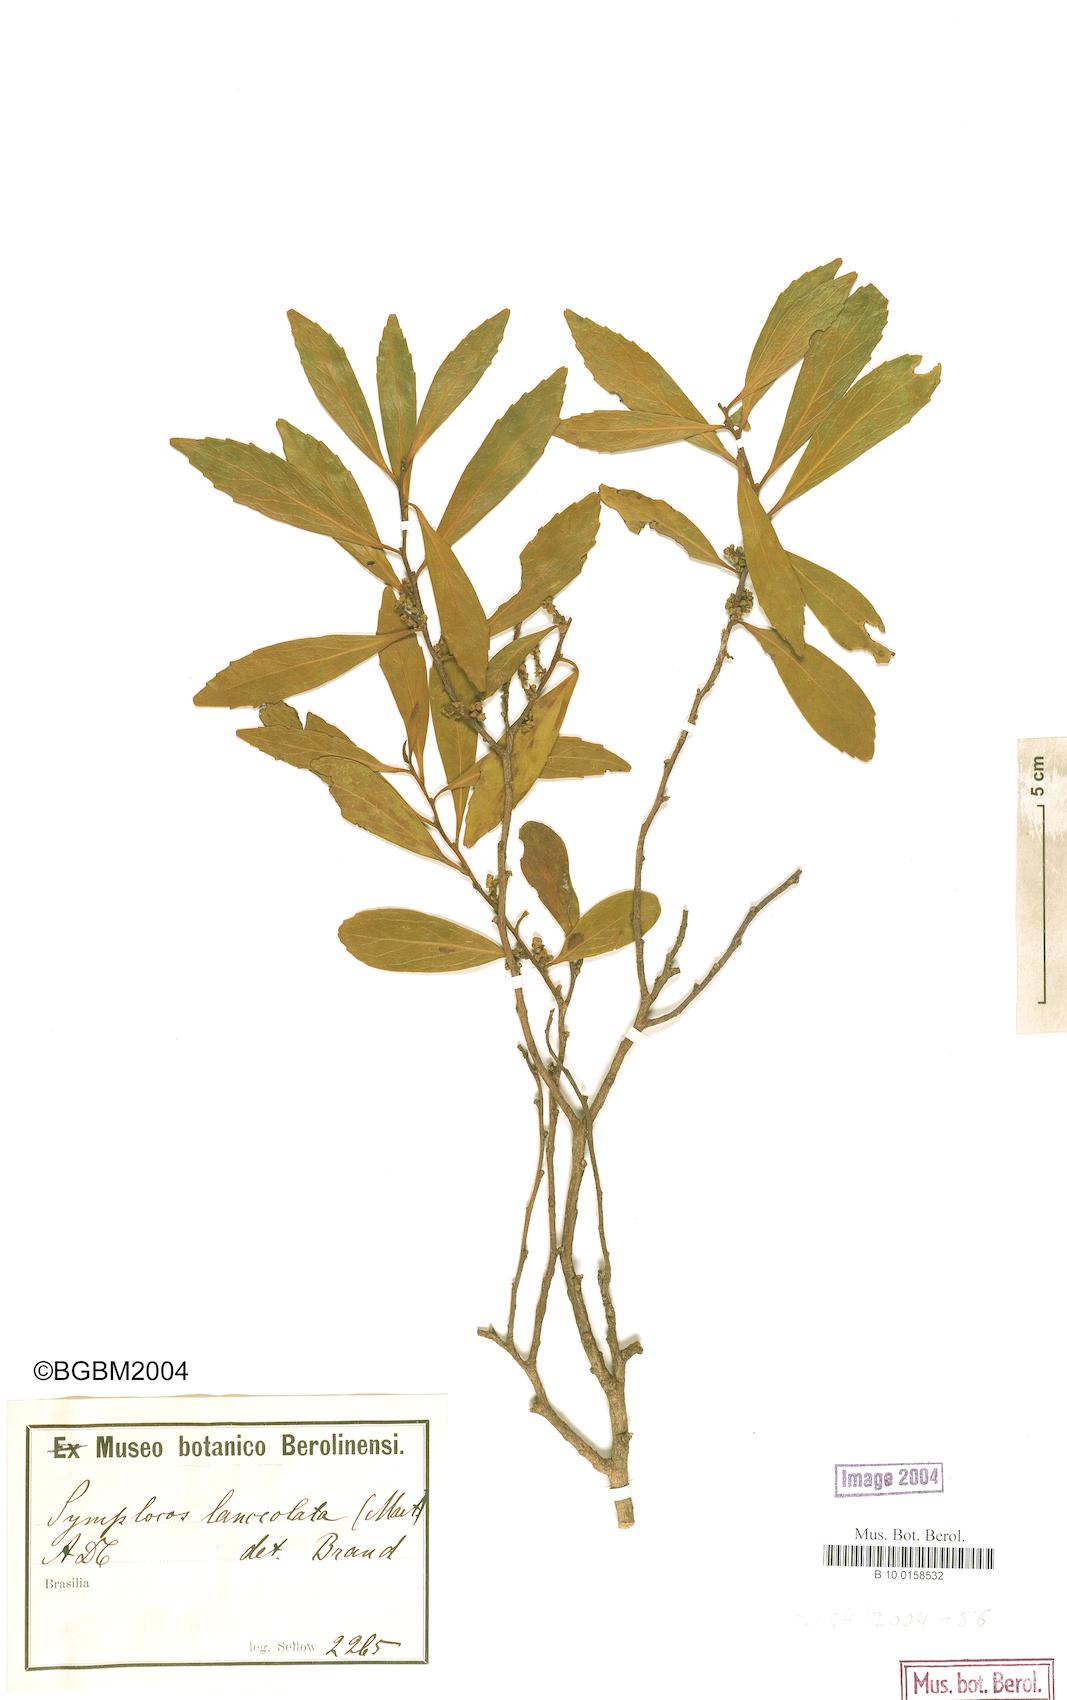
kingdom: Plantae
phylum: Tracheophyta
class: Magnoliopsida
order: Ericales
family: Symplocaceae
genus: Symplocos
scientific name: Symplocos oblongifolia
